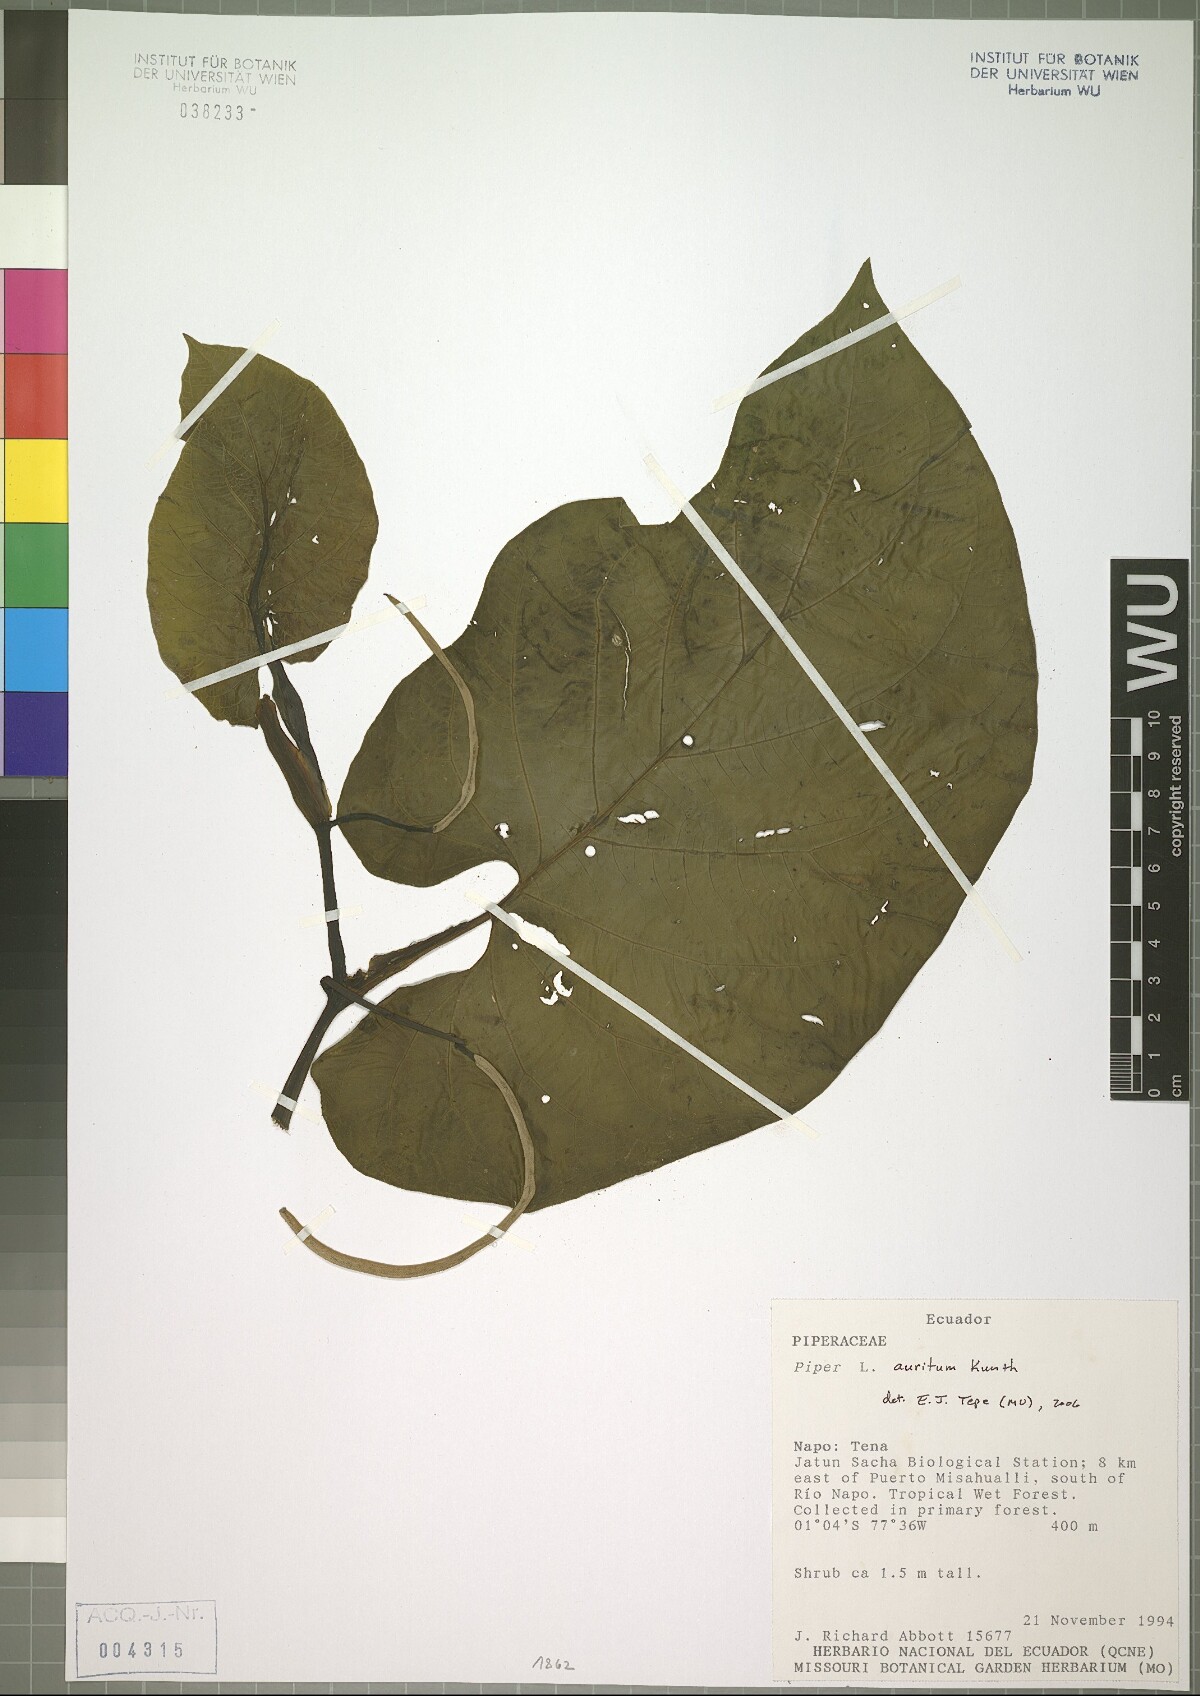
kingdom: Plantae
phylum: Tracheophyta
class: Magnoliopsida
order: Piperales
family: Piperaceae
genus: Piper
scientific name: Piper auritum
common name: Vera cruz pepper
